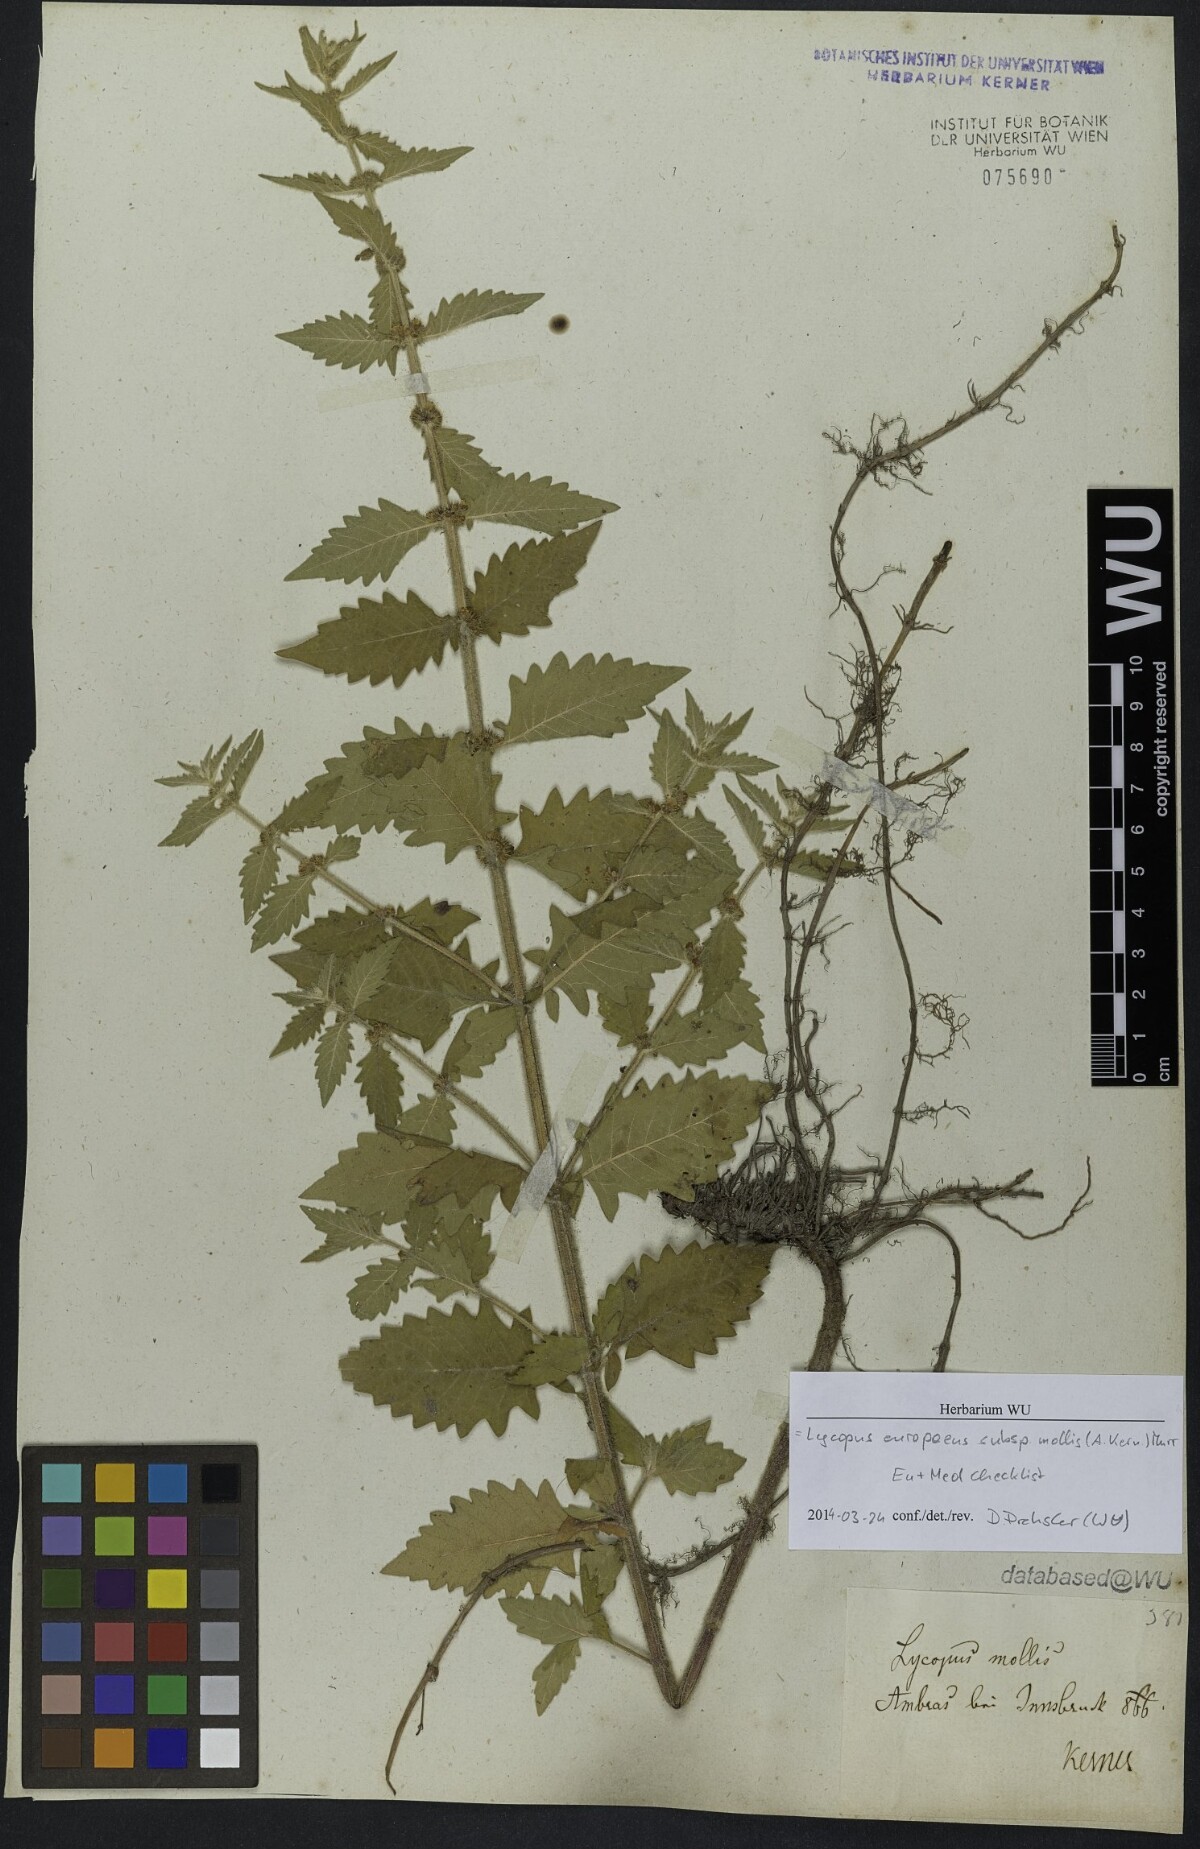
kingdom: Plantae
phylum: Tracheophyta
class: Magnoliopsida
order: Lamiales
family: Lamiaceae
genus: Lycopus
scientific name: Lycopus europaeus
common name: European bugleweed
